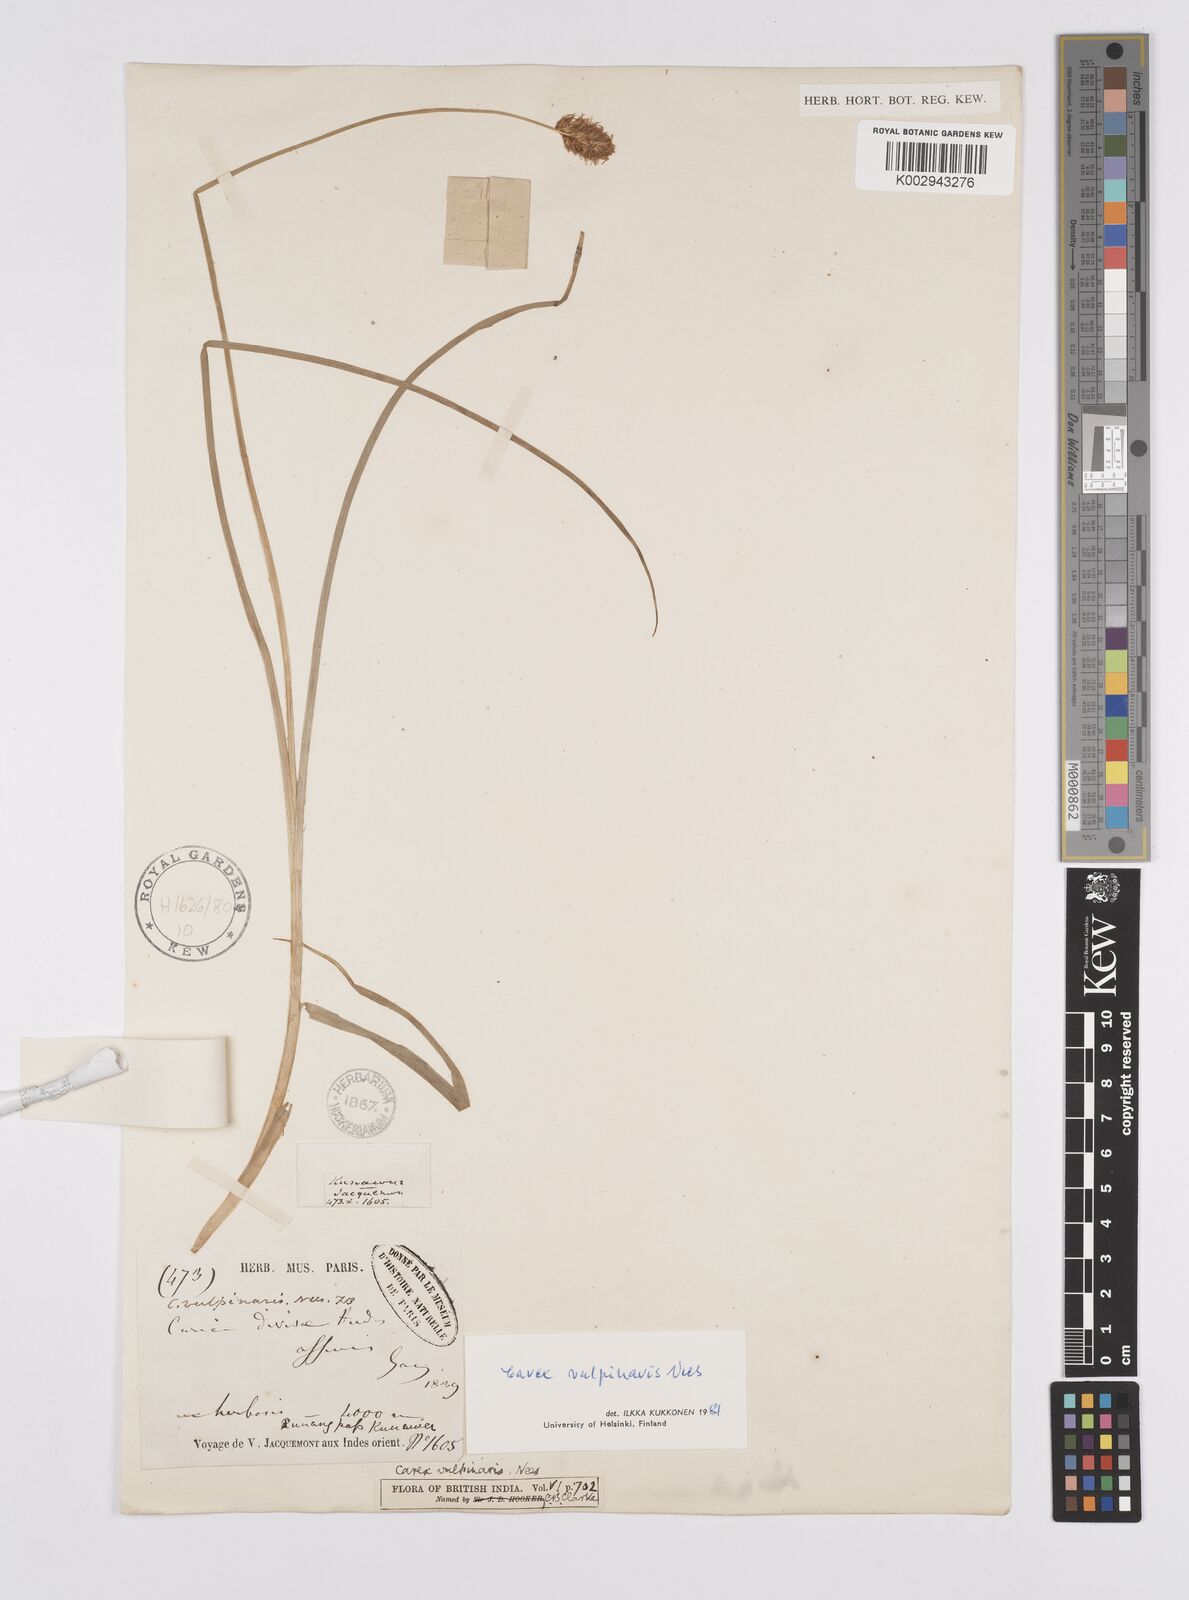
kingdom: Plantae
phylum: Tracheophyta
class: Liliopsida
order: Poales
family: Cyperaceae
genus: Carex
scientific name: Carex vulpinaris
